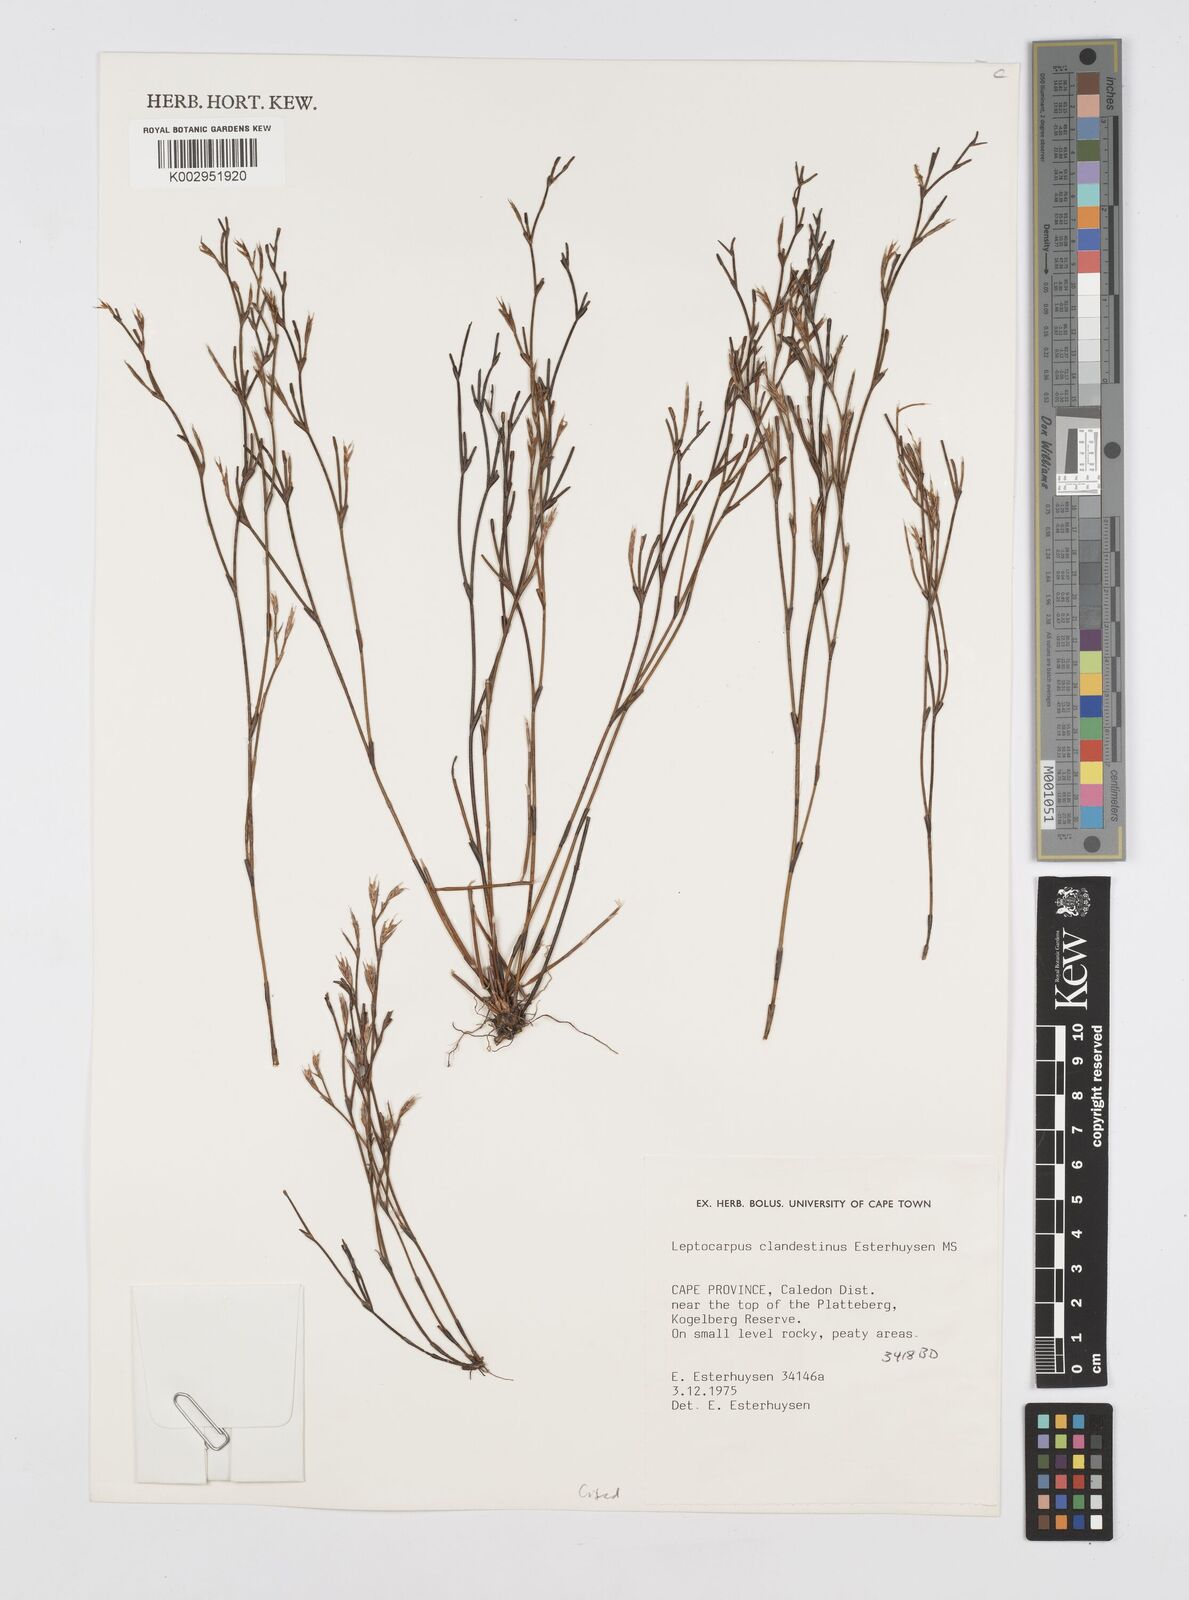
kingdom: Plantae
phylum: Tracheophyta
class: Liliopsida
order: Poales
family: Restionaceae
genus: Restio
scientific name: Restio clandestinus
